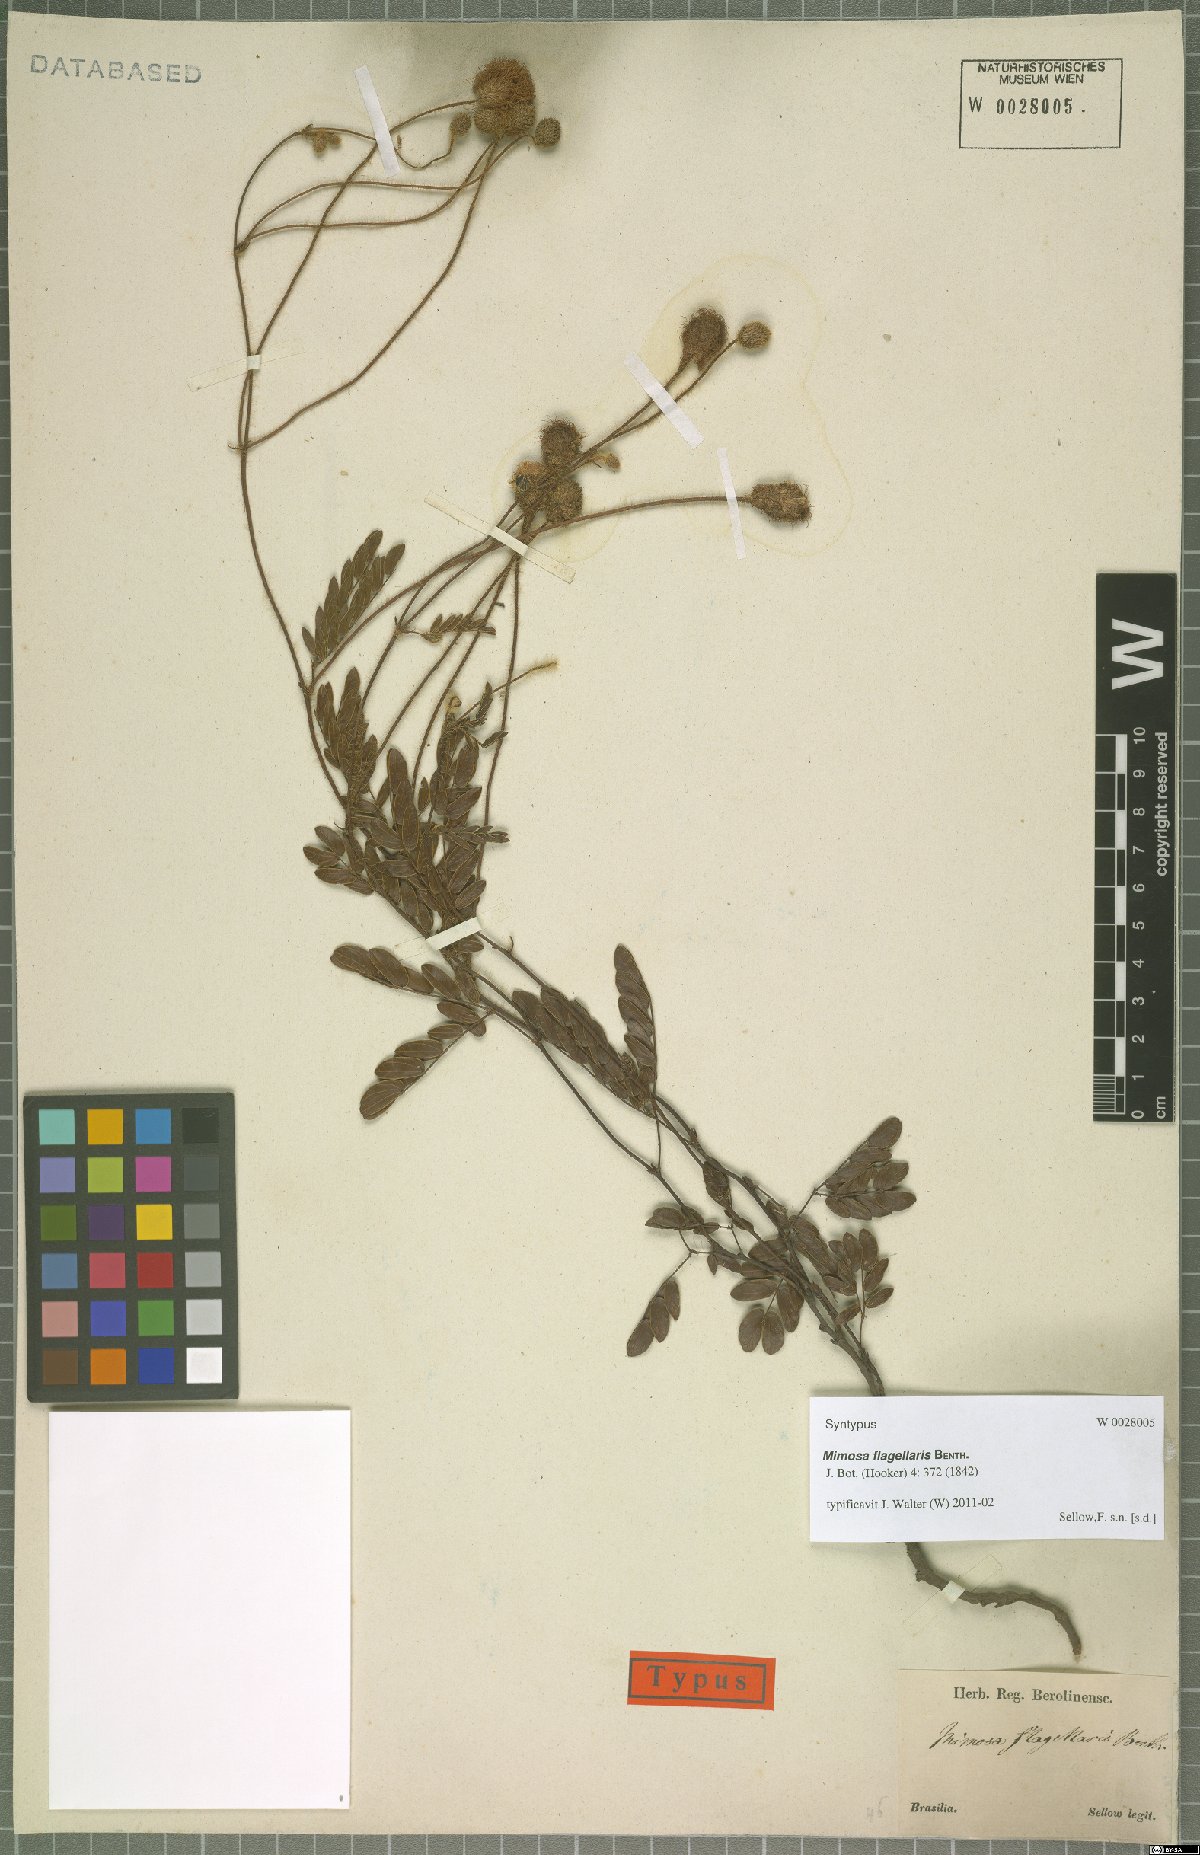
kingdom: Plantae
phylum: Tracheophyta
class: Magnoliopsida
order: Fabales
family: Fabaceae
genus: Mimosa
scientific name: Mimosa flagellaris
